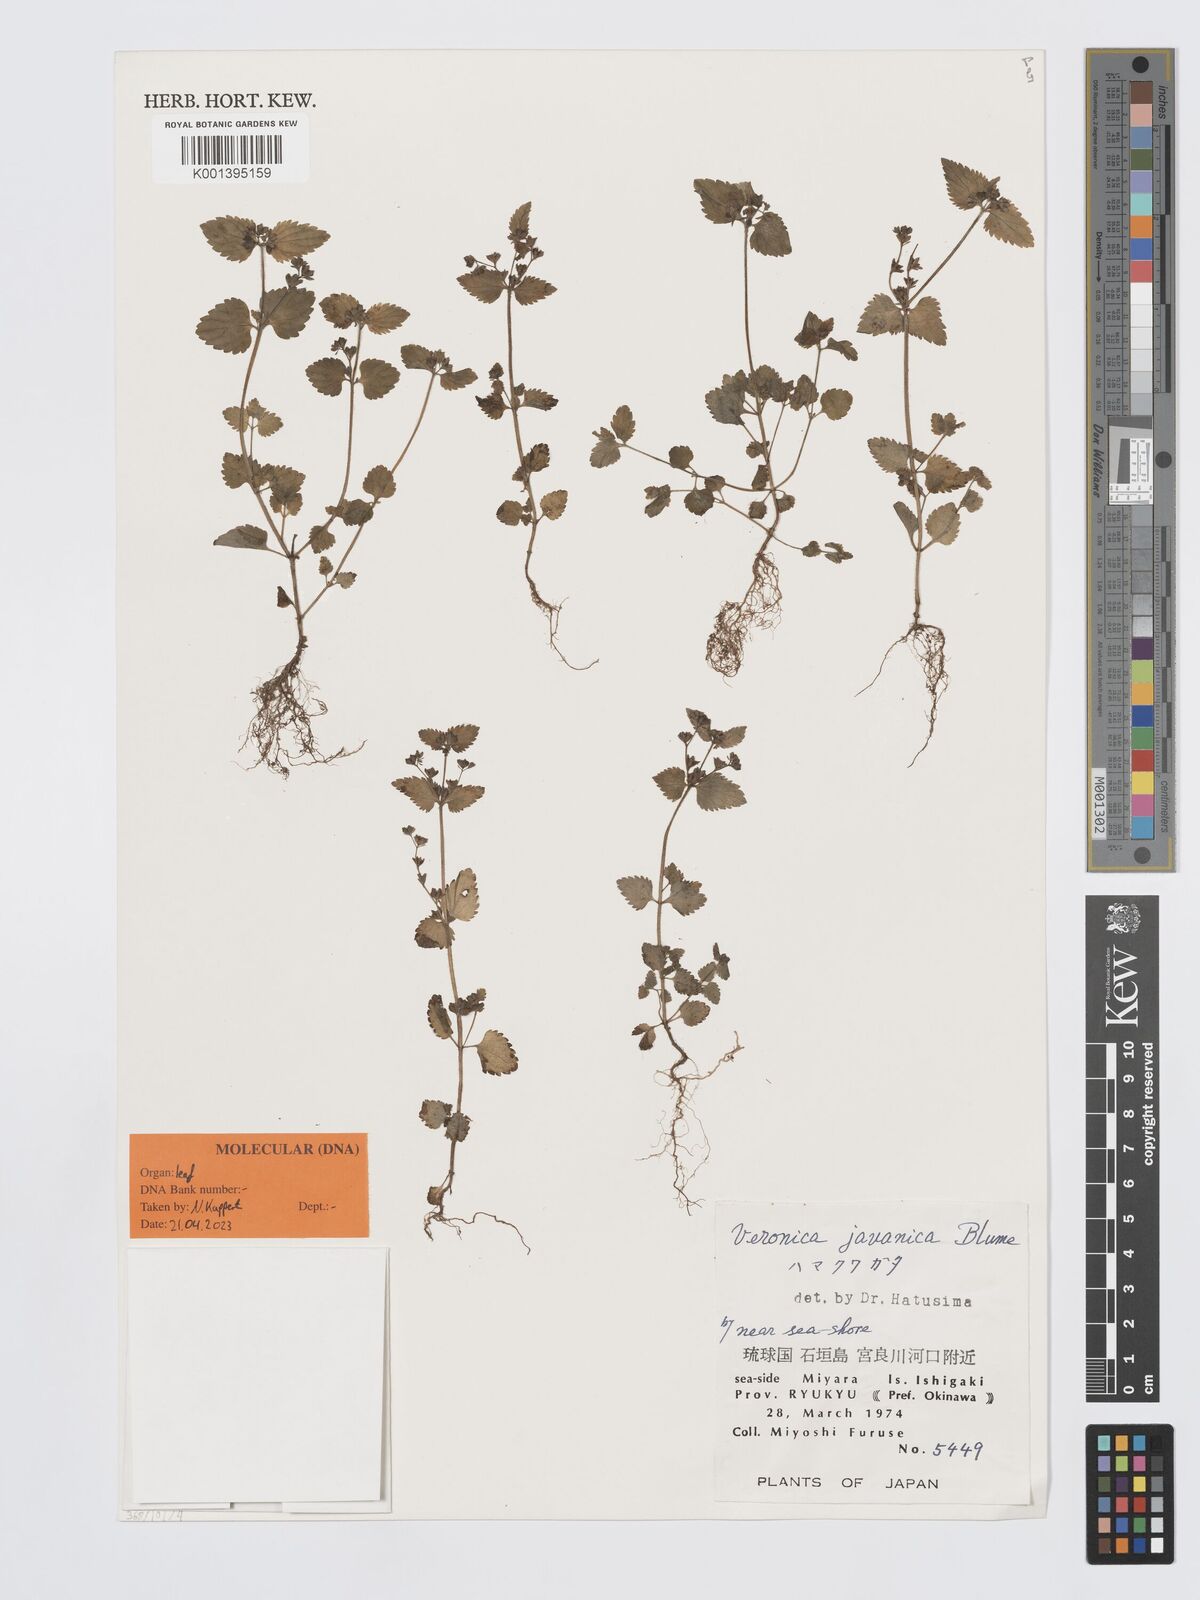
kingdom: Plantae
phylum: Tracheophyta
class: Magnoliopsida
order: Lamiales
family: Plantaginaceae
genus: Veronica
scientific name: Veronica javanica
